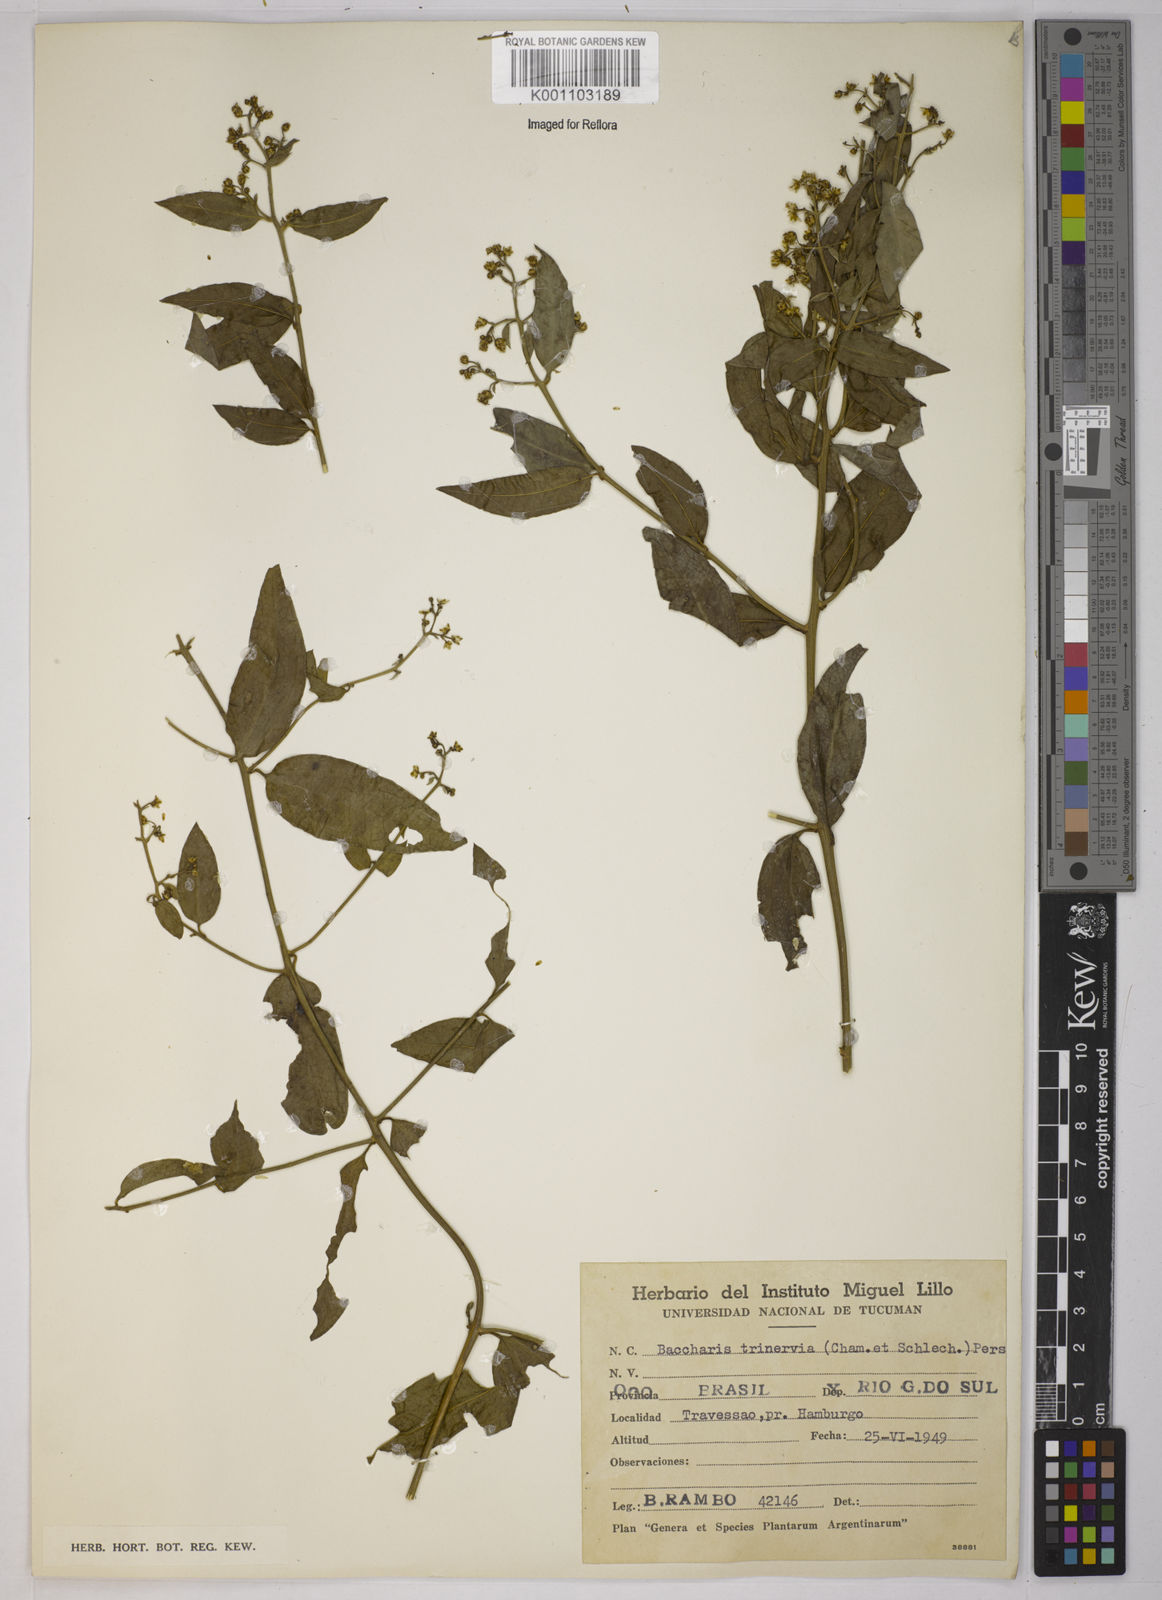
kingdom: Plantae
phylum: Tracheophyta
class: Magnoliopsida
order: Asterales
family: Asteraceae
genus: Baccharis
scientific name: Baccharis trinervis
